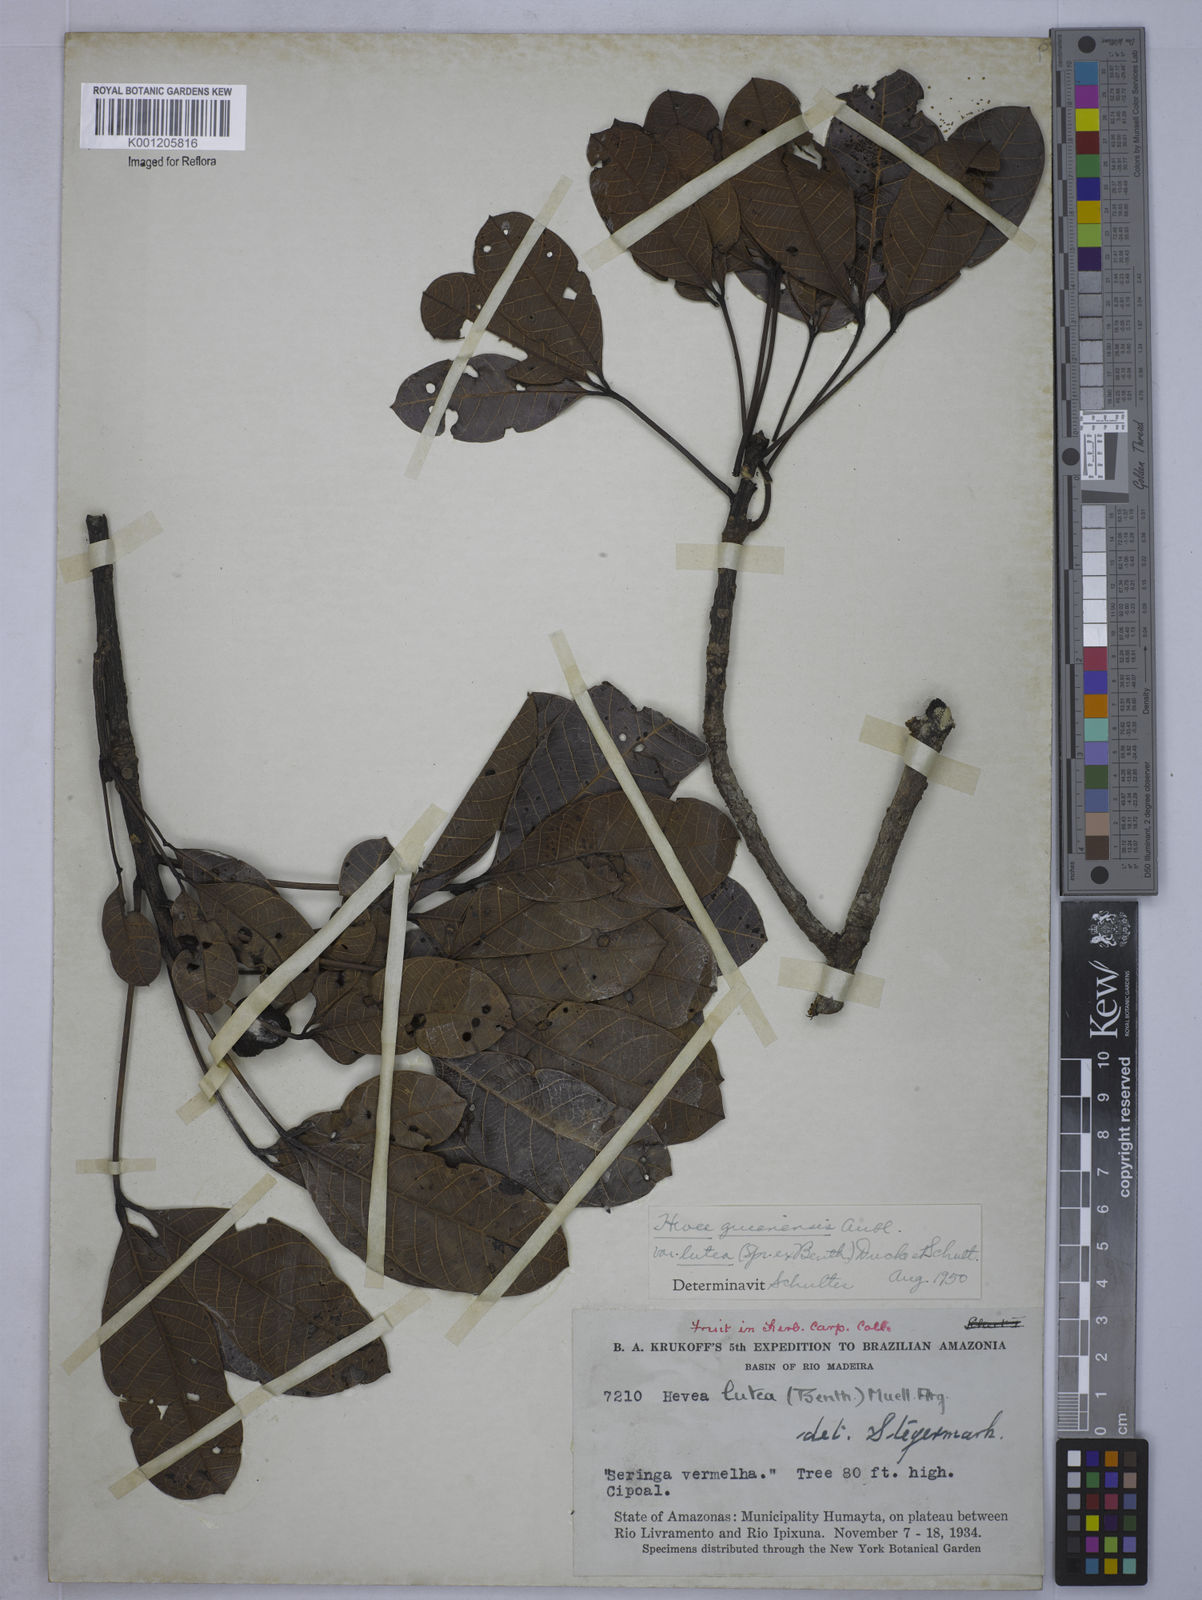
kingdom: Plantae
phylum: Tracheophyta
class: Magnoliopsida
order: Malpighiales
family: Euphorbiaceae
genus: Hevea
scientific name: Hevea guianensis
